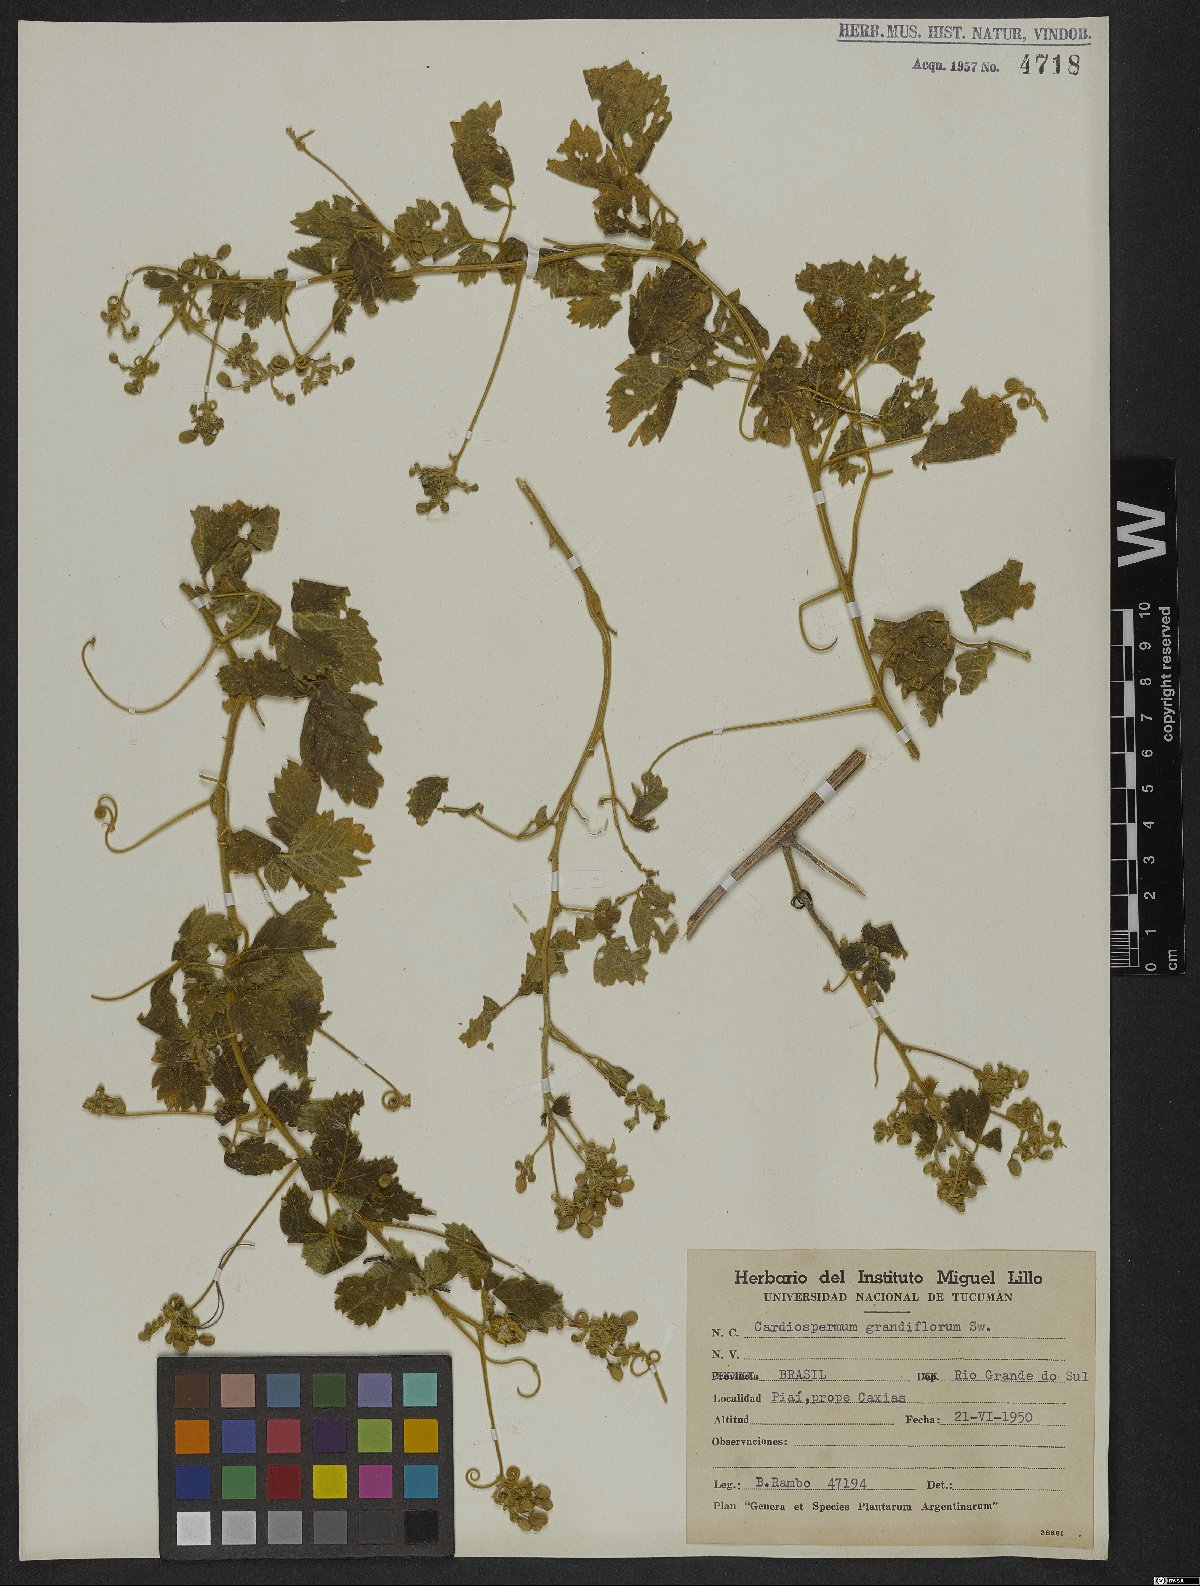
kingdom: Plantae
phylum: Tracheophyta
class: Magnoliopsida
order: Sapindales
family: Sapindaceae
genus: Cardiospermum
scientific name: Cardiospermum grandiflorum
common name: Balloon vine
